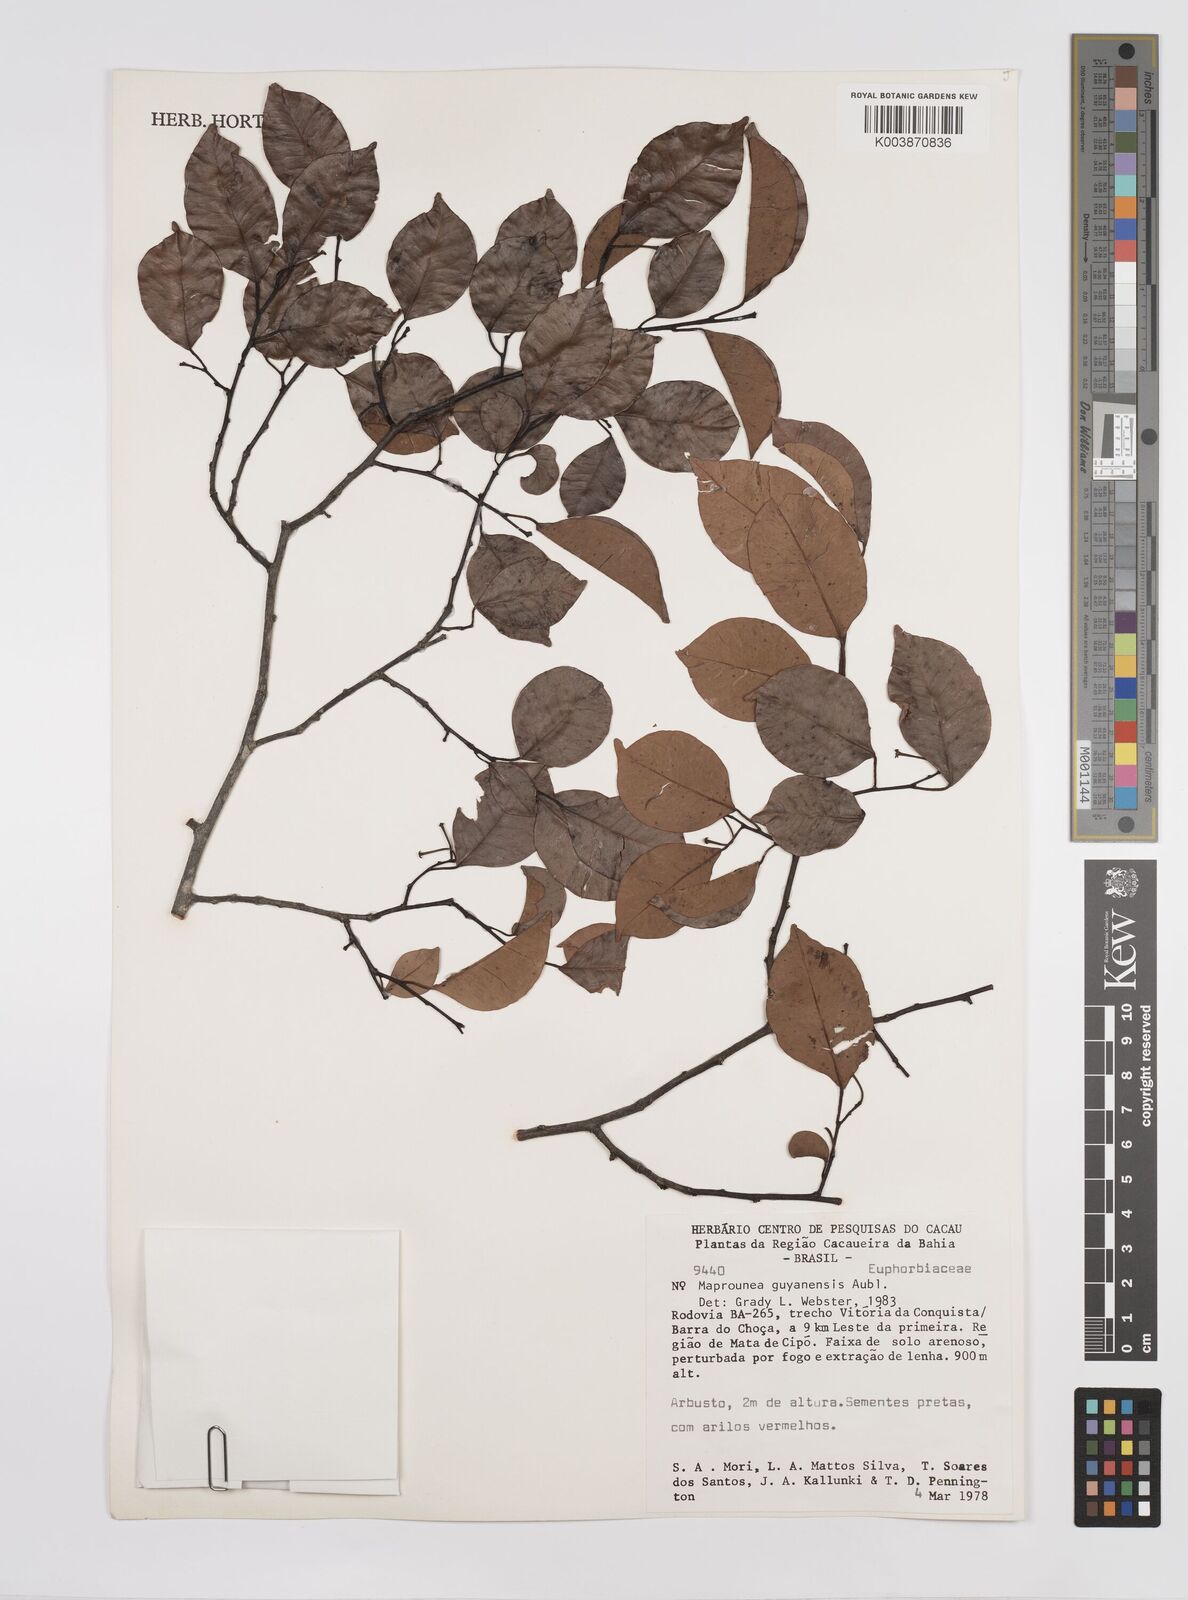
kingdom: Plantae
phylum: Tracheophyta
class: Magnoliopsida
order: Malpighiales
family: Euphorbiaceae
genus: Maprounea
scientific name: Maprounea guianensis
